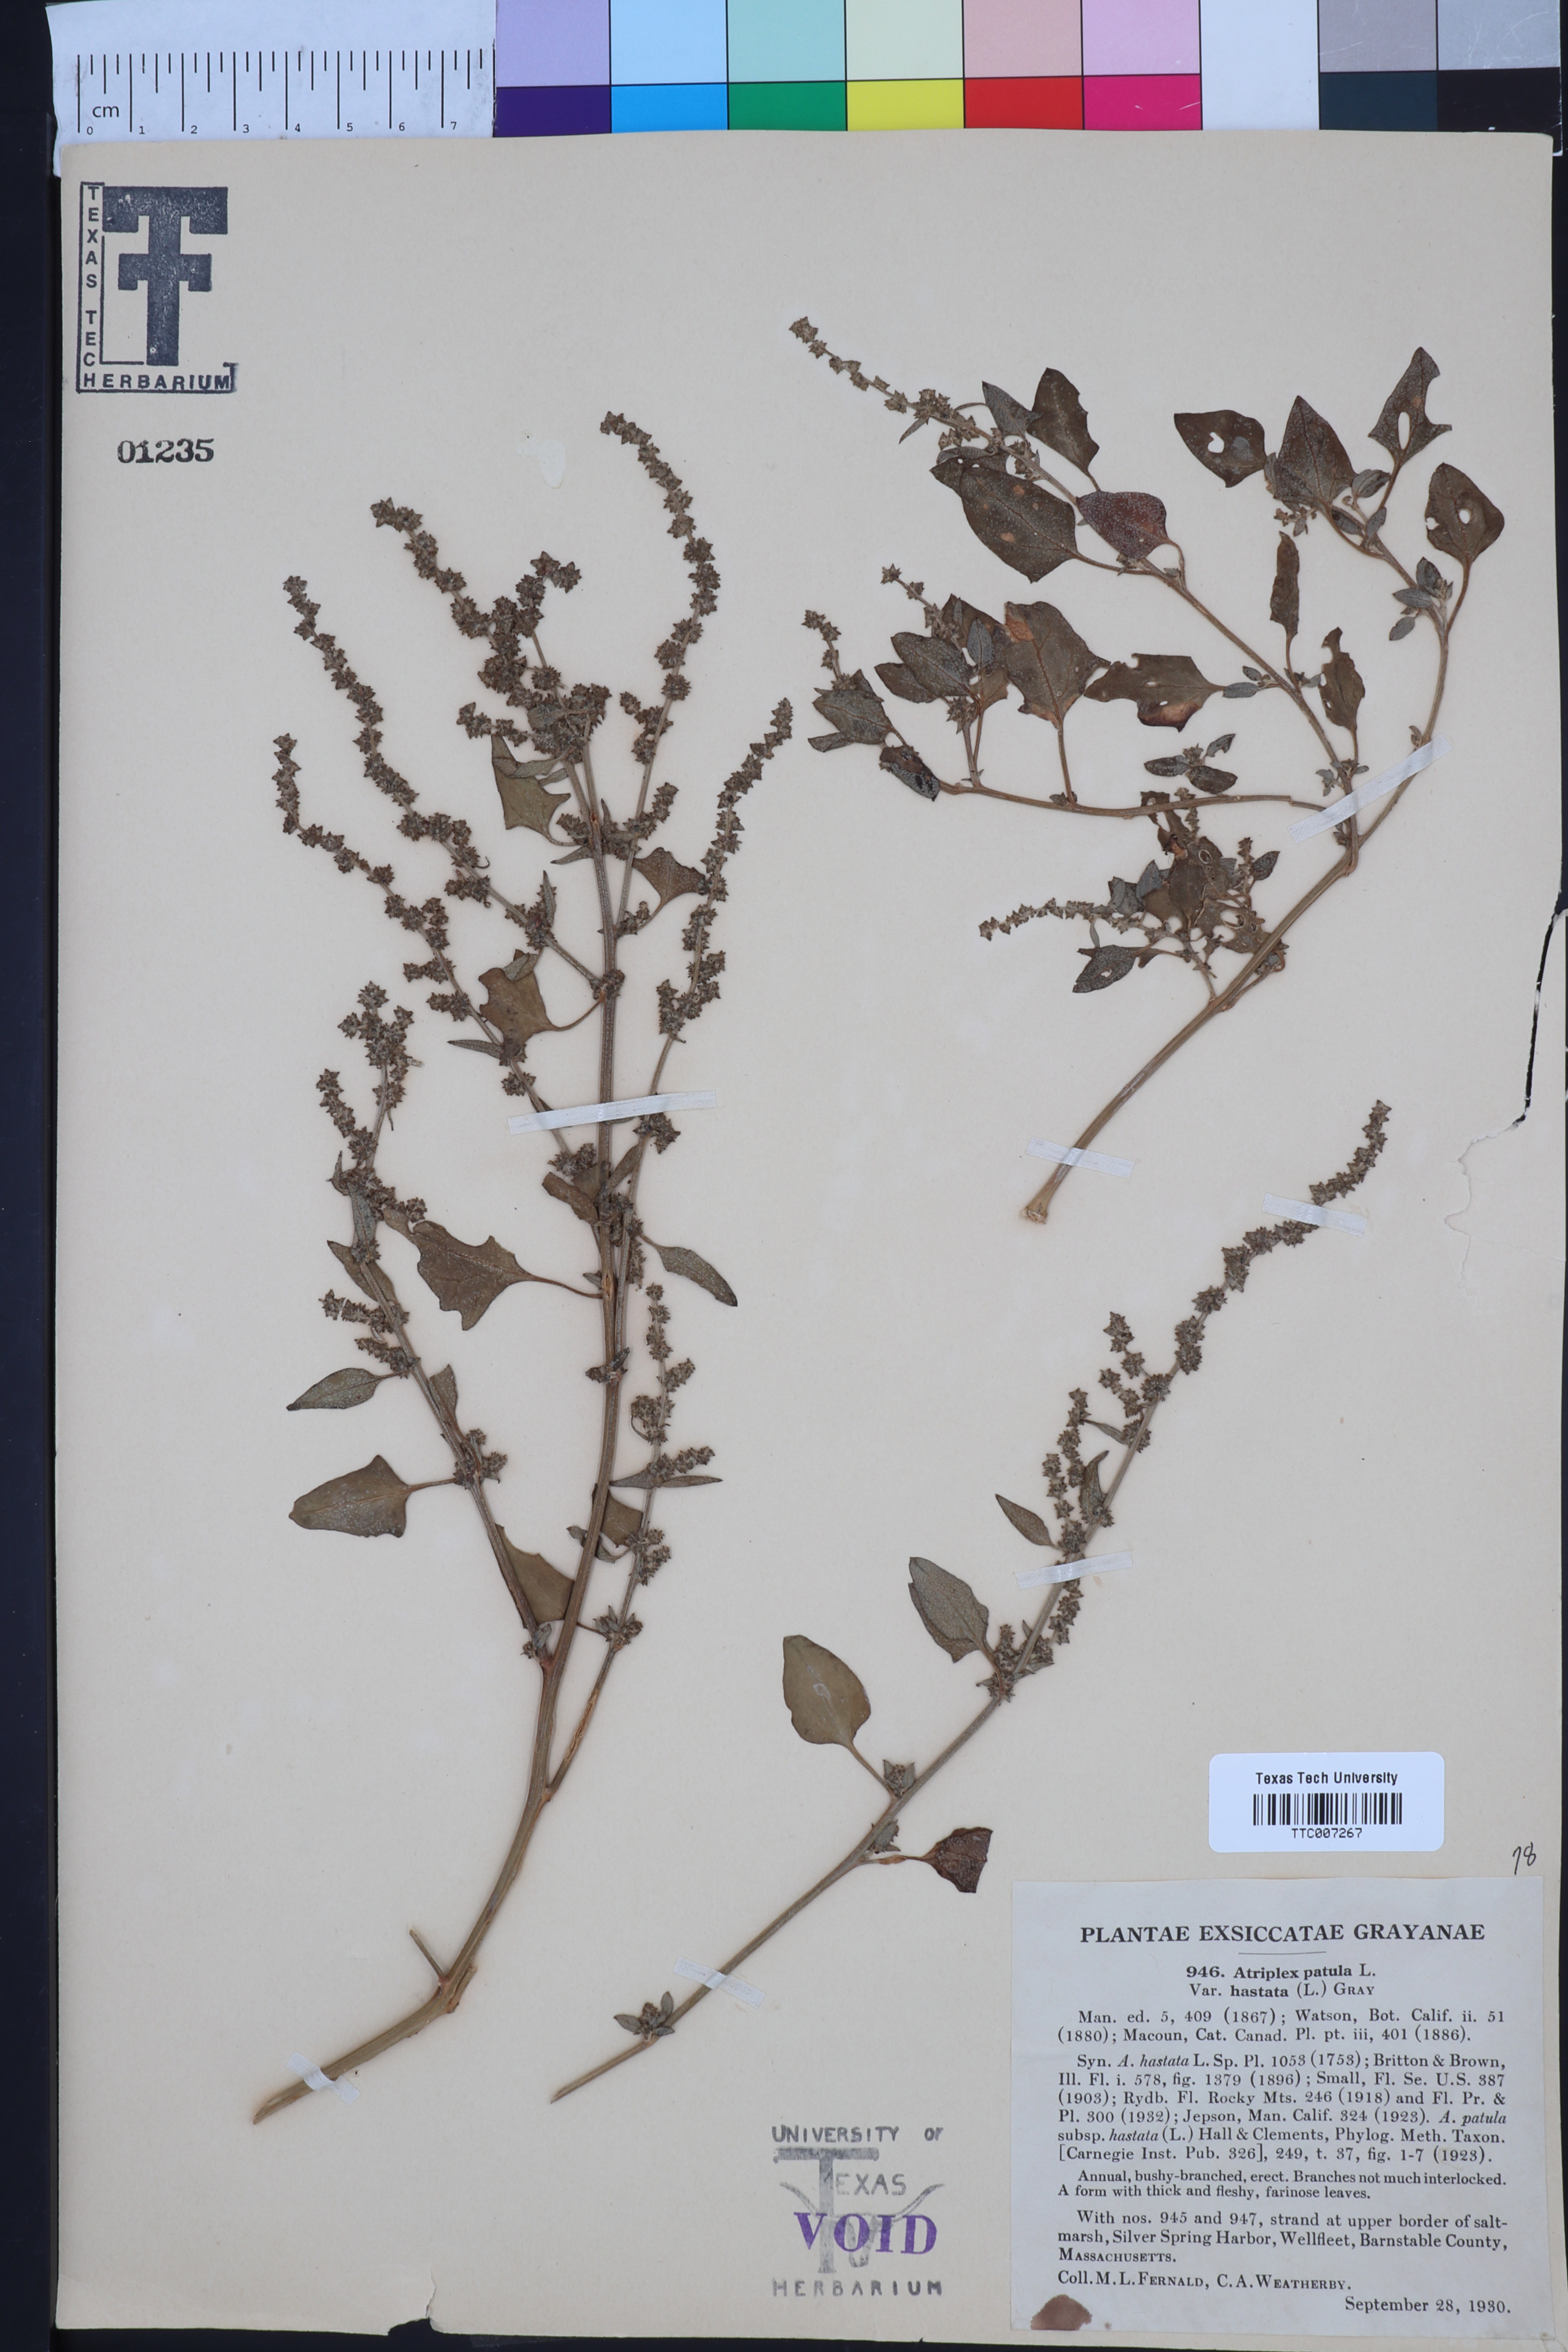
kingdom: Plantae
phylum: Tracheophyta
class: Magnoliopsida
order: Caryophyllales
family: Amaranthaceae
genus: Atriplex
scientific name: Atriplex
